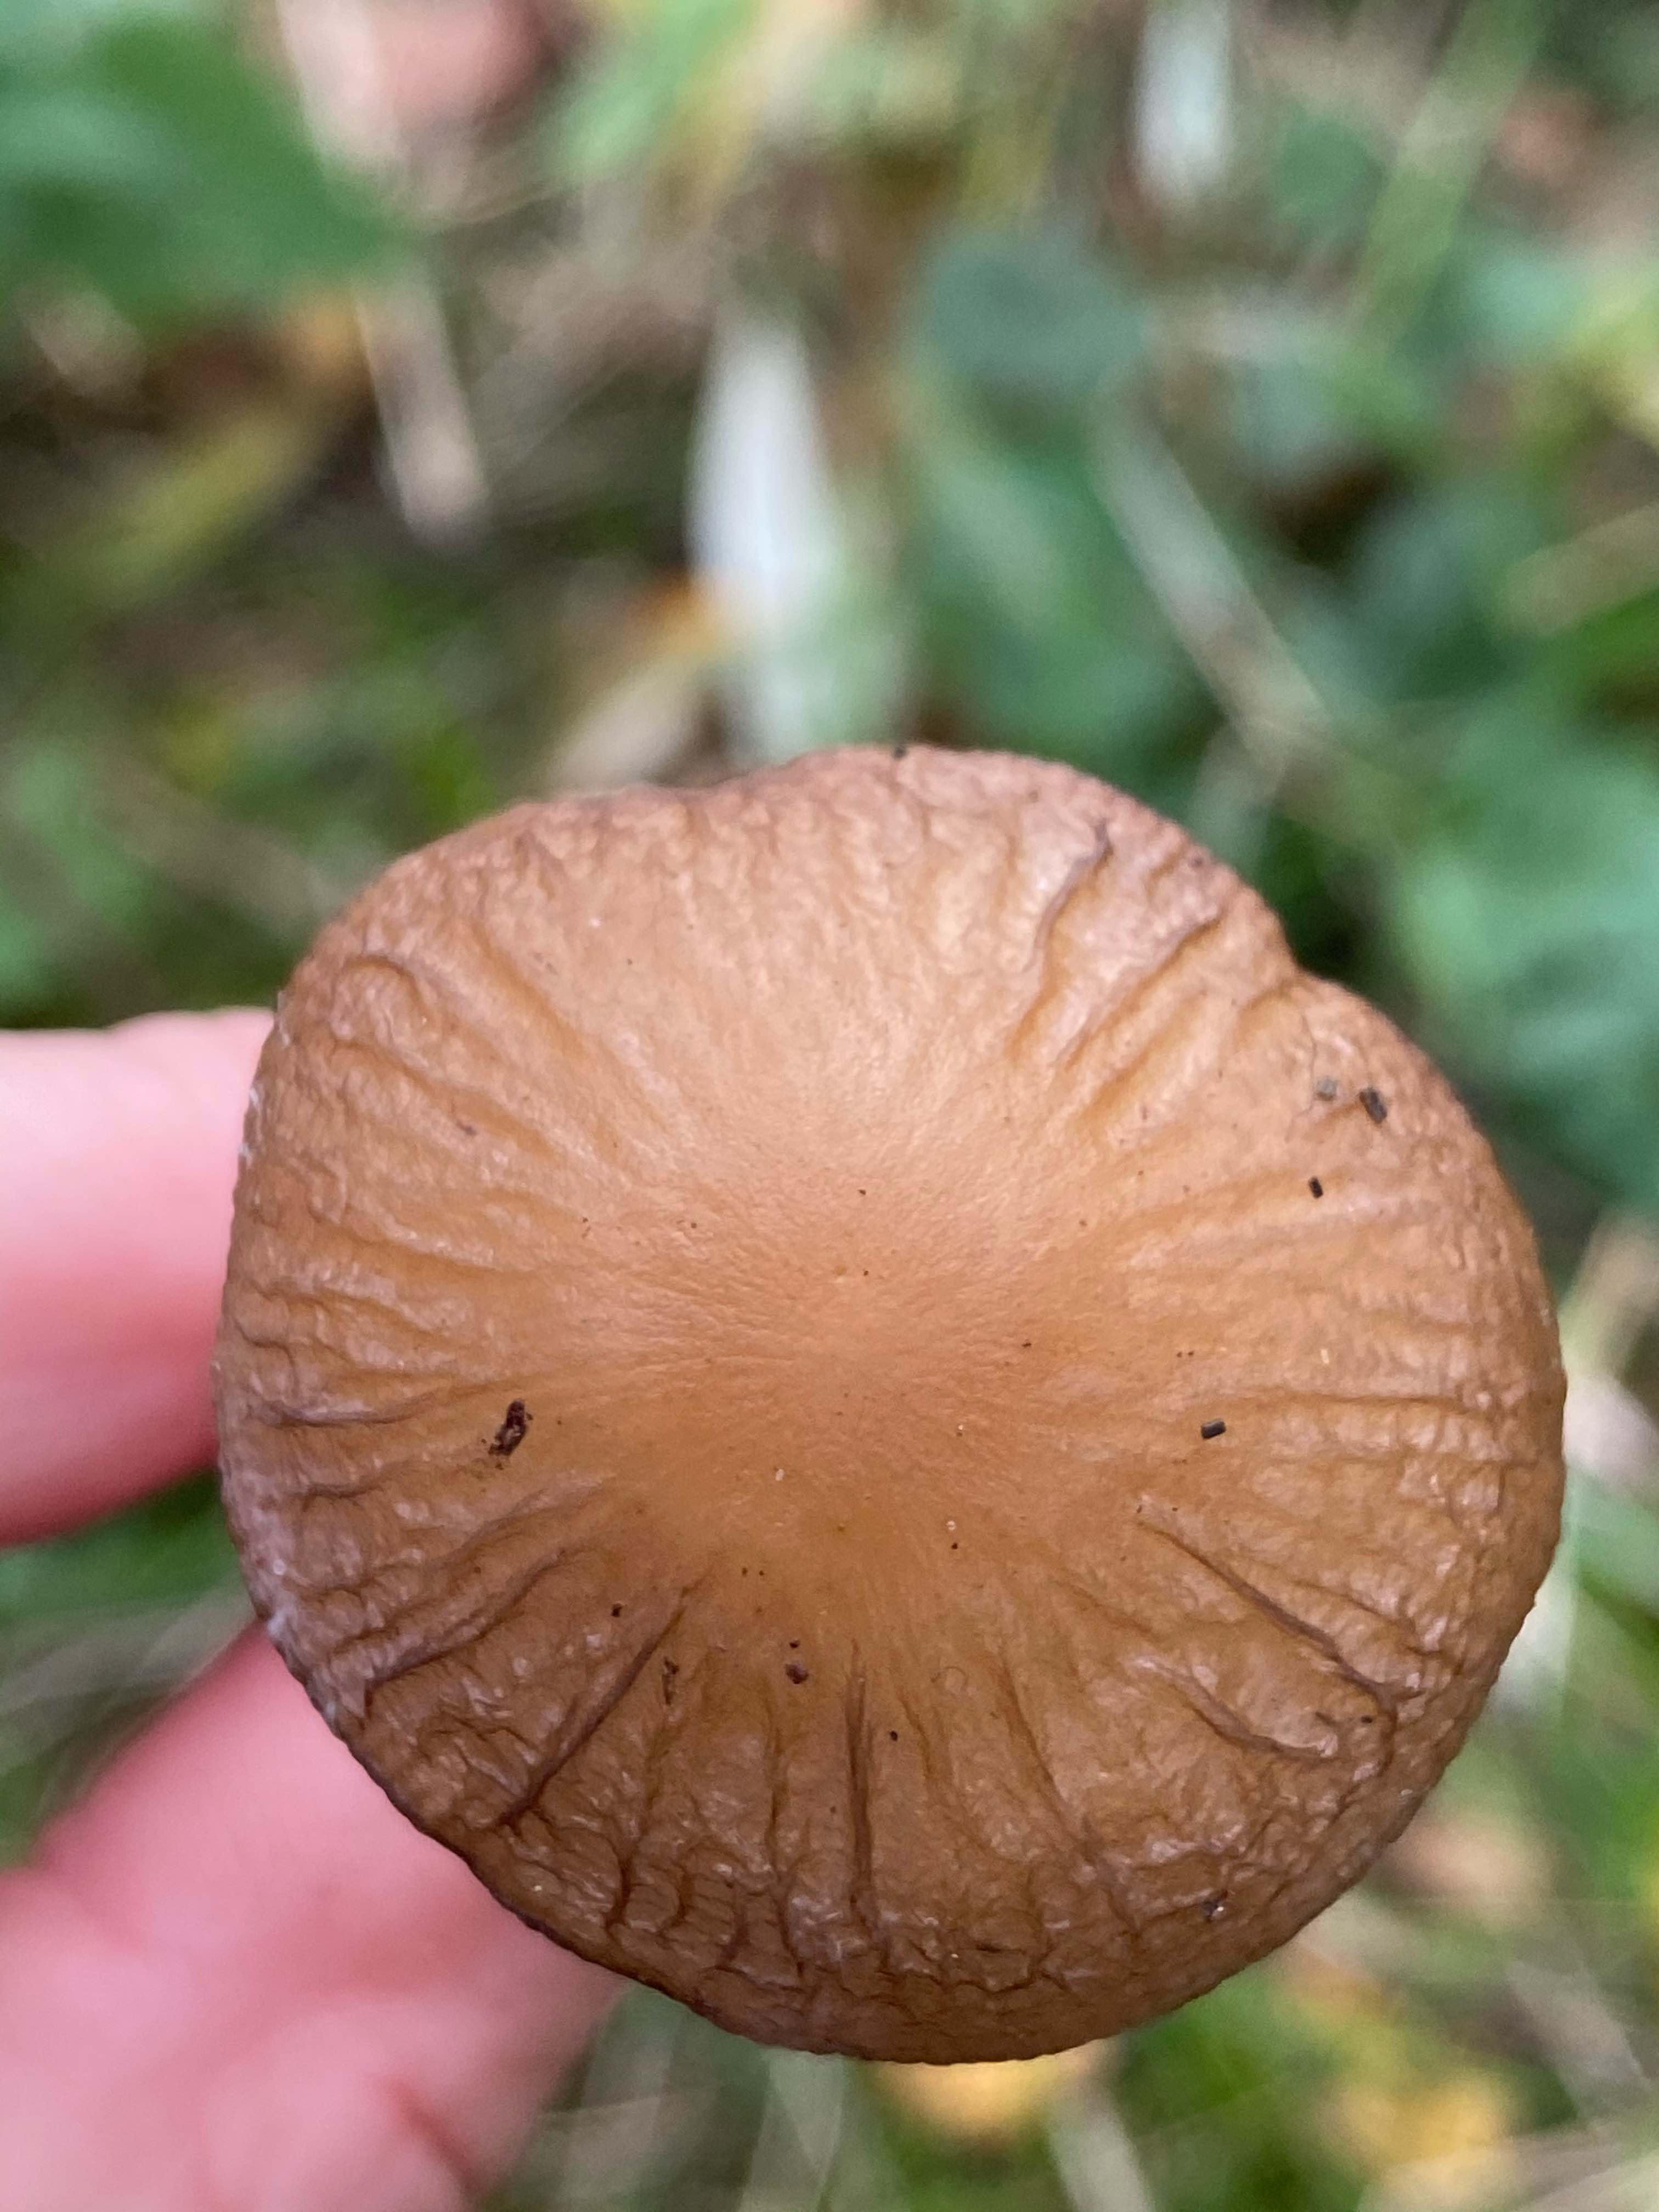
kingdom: Fungi
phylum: Basidiomycota
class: Agaricomycetes
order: Agaricales
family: Physalacriaceae
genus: Hymenopellis
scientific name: Hymenopellis radicata
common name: almindelig pælerodshat
